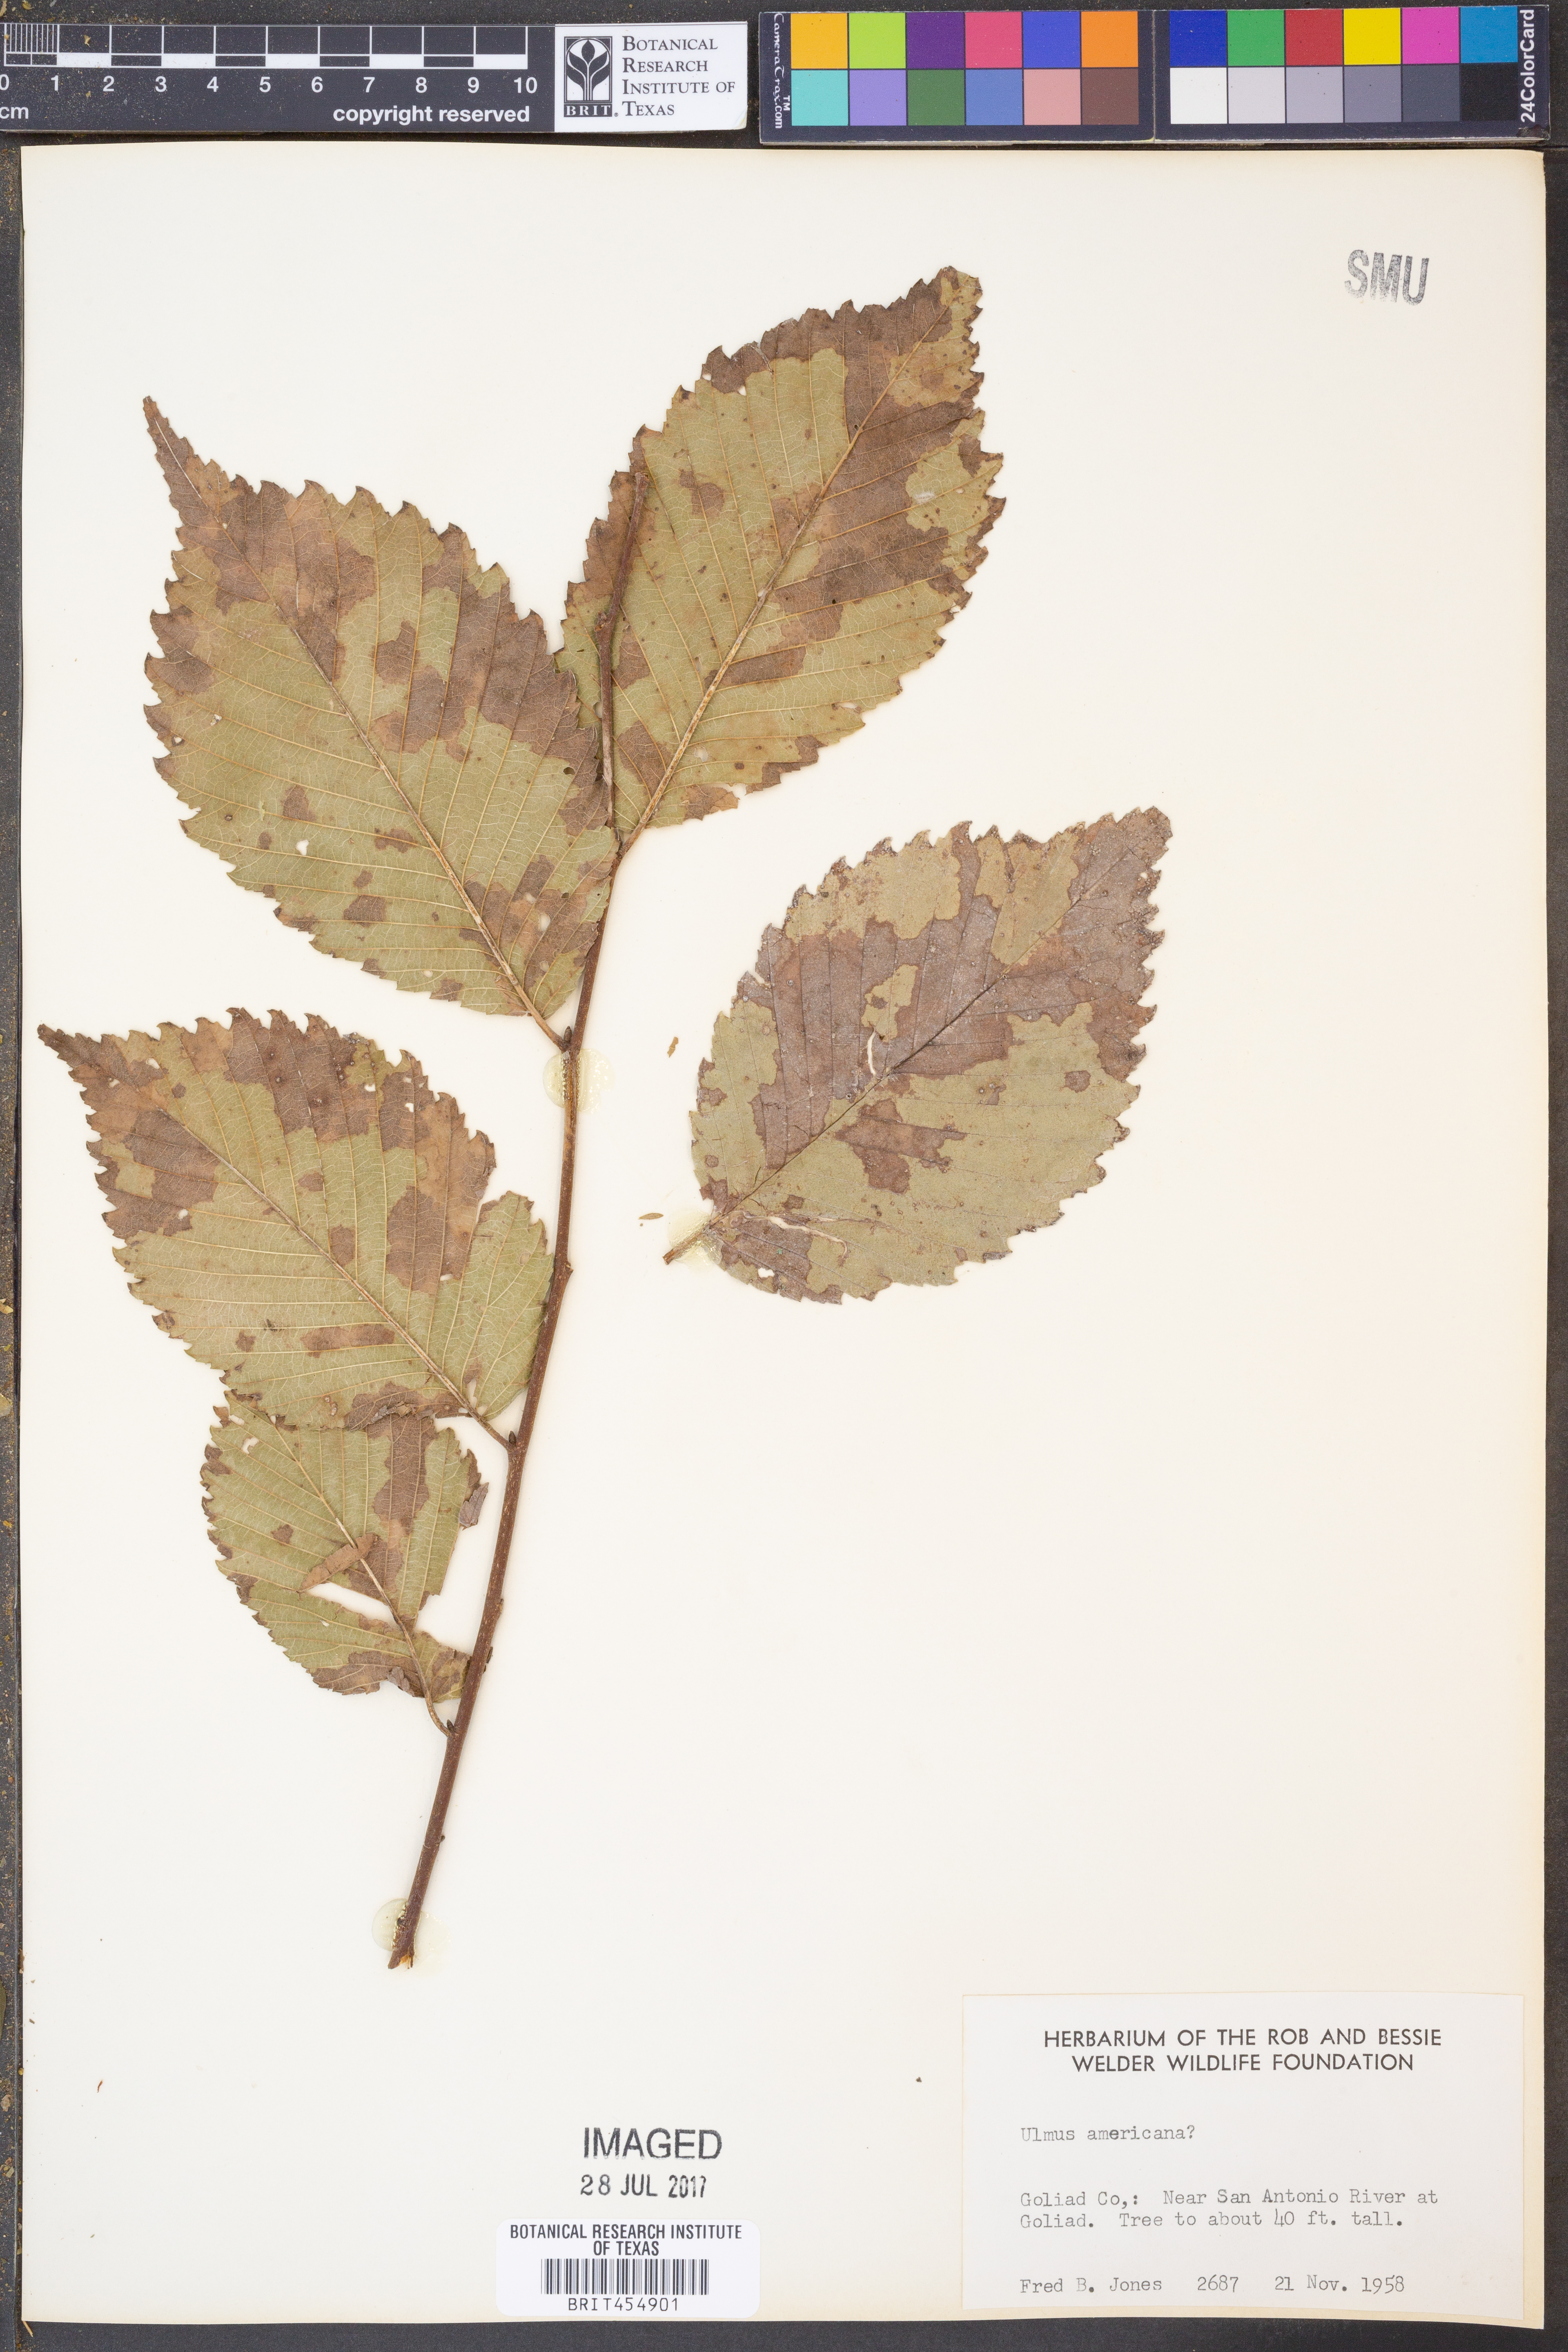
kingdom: Plantae
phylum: Tracheophyta
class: Magnoliopsida
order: Rosales
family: Ulmaceae
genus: Ulmus
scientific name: Ulmus americana
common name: American elm
